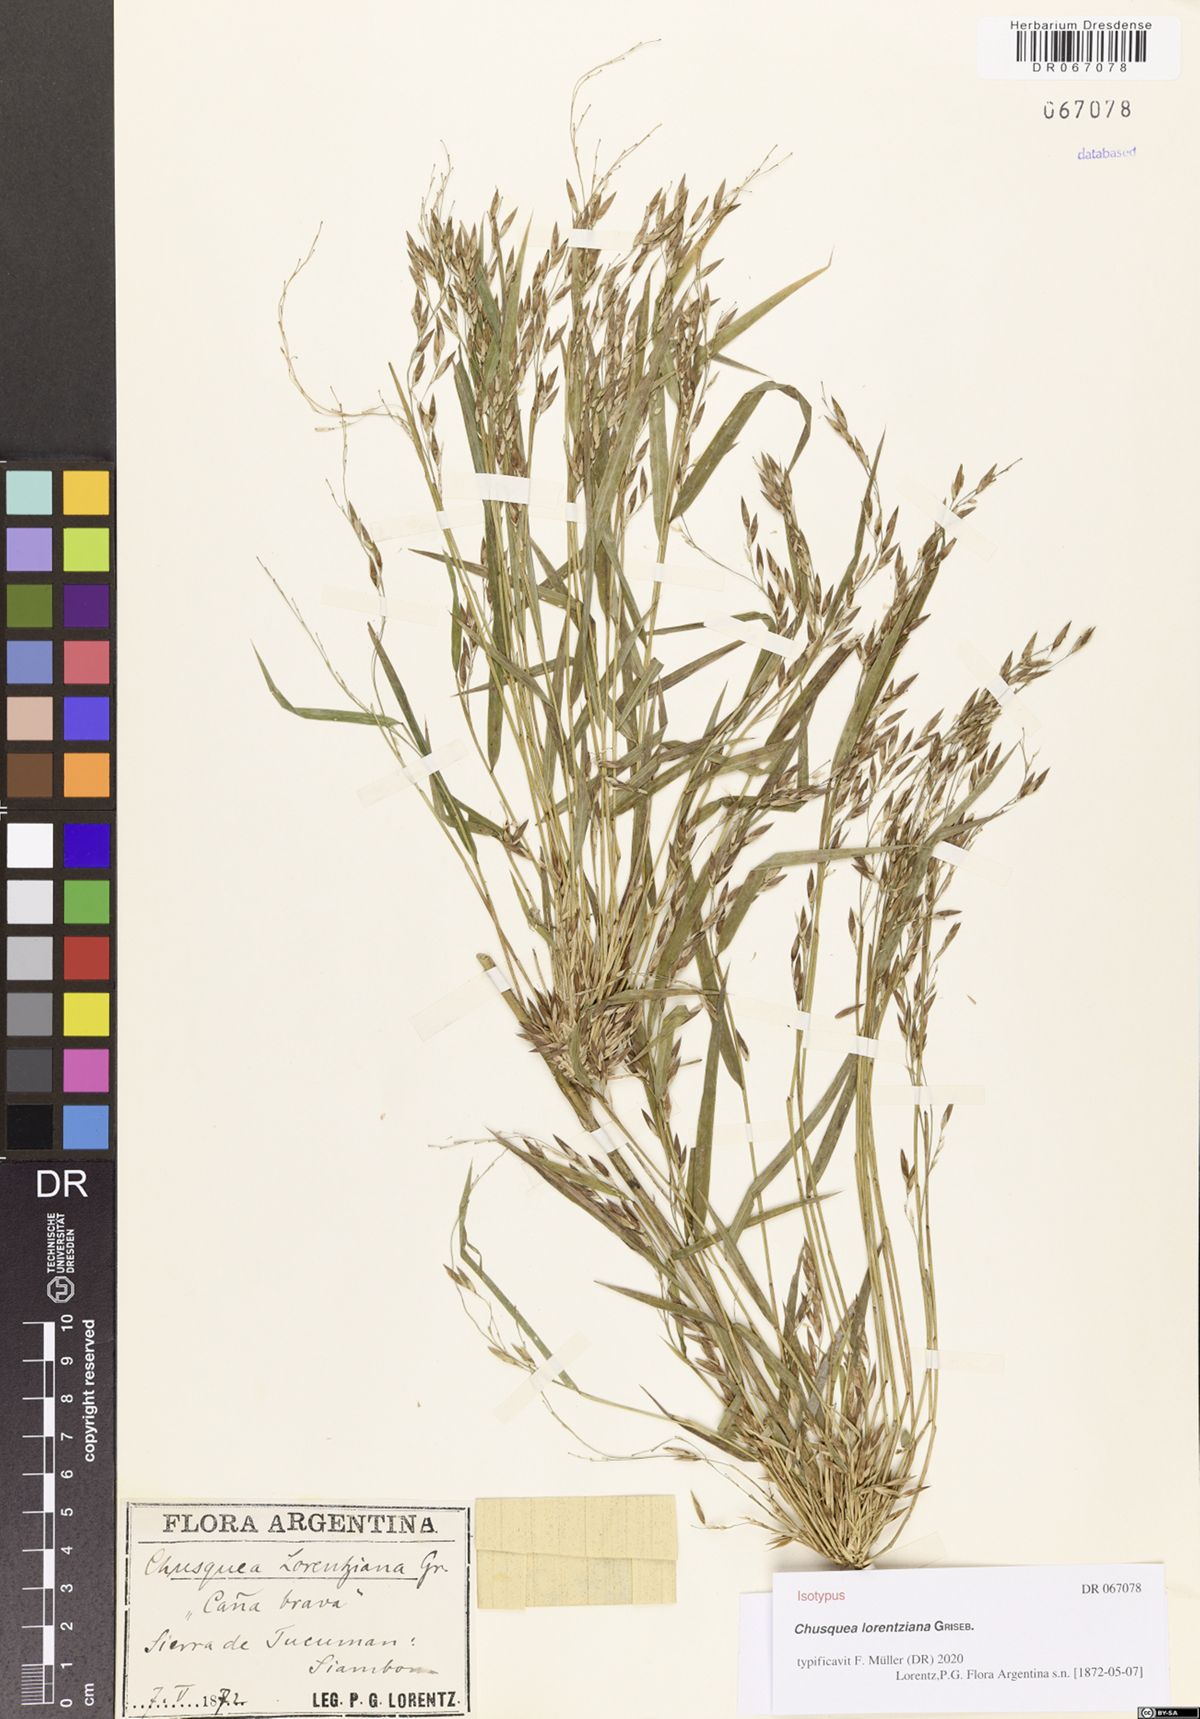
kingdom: Plantae
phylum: Tracheophyta
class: Liliopsida
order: Poales
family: Poaceae
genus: Chusquea
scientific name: Chusquea lorentziana
